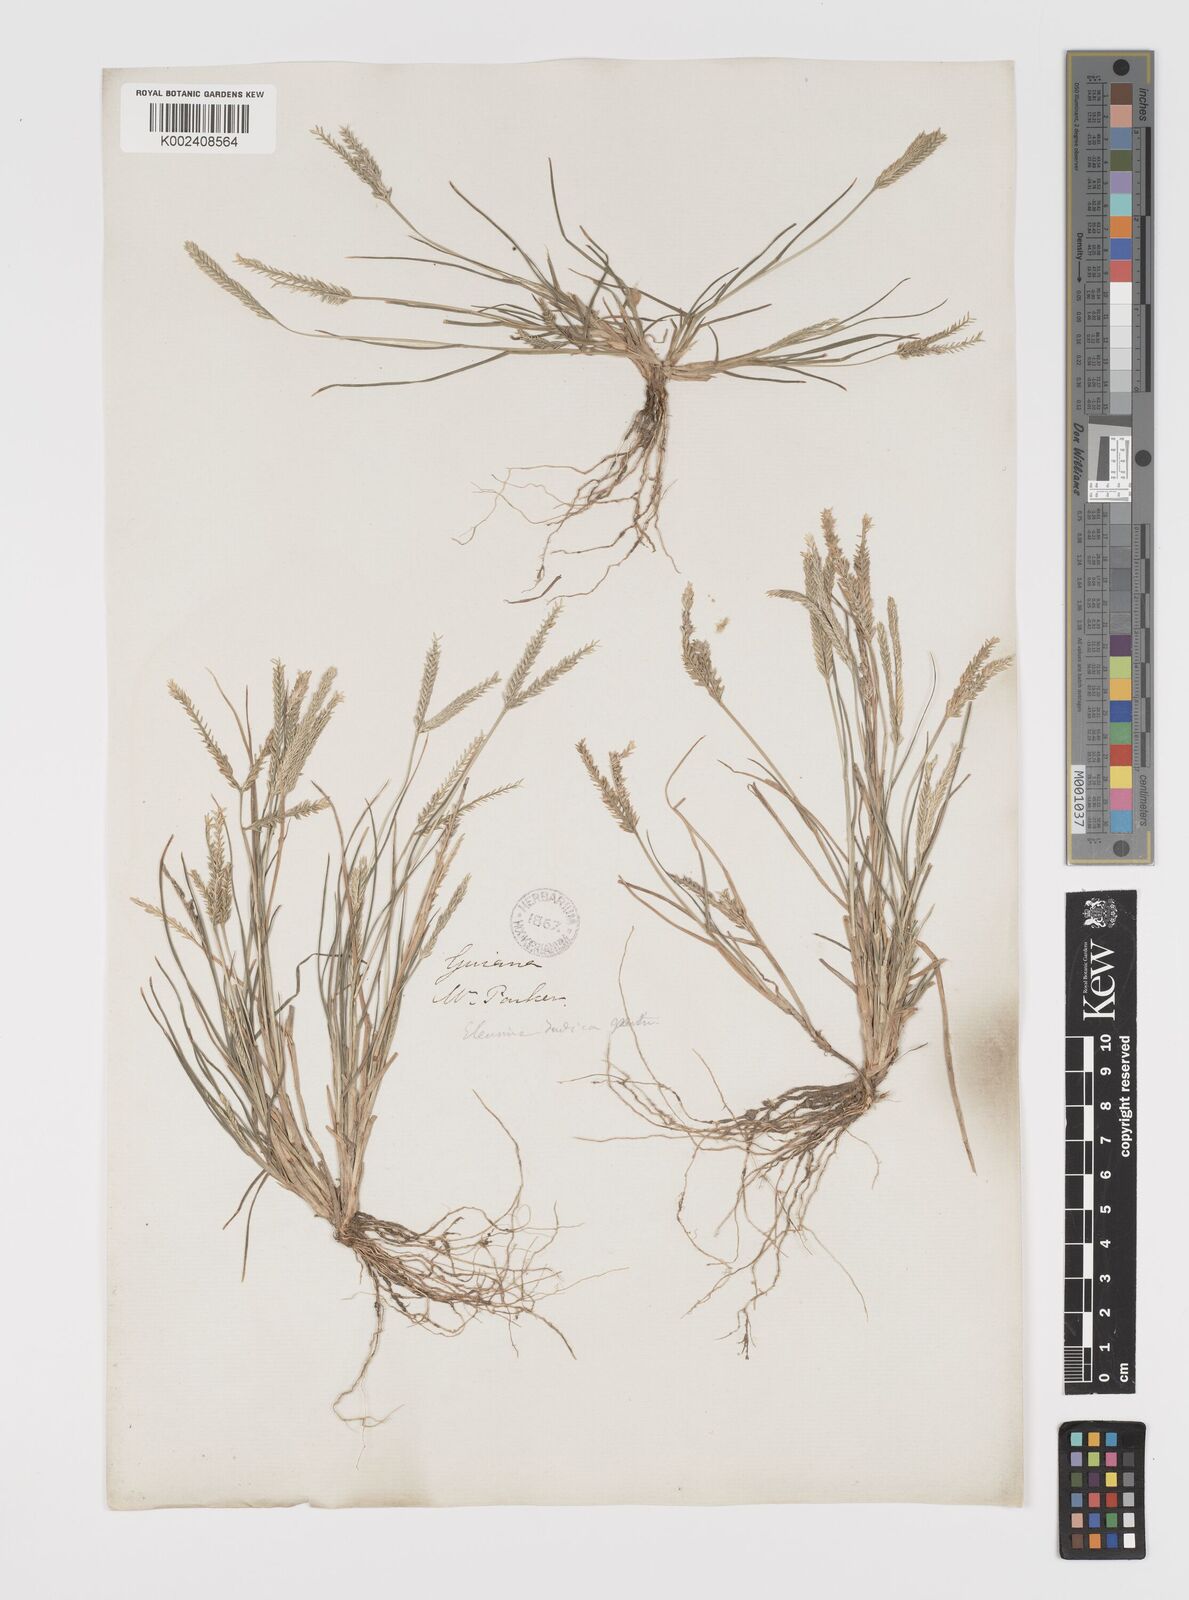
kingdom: Plantae
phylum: Tracheophyta
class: Liliopsida
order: Poales
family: Poaceae
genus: Eleusine
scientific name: Eleusine indica
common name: Yard-grass
